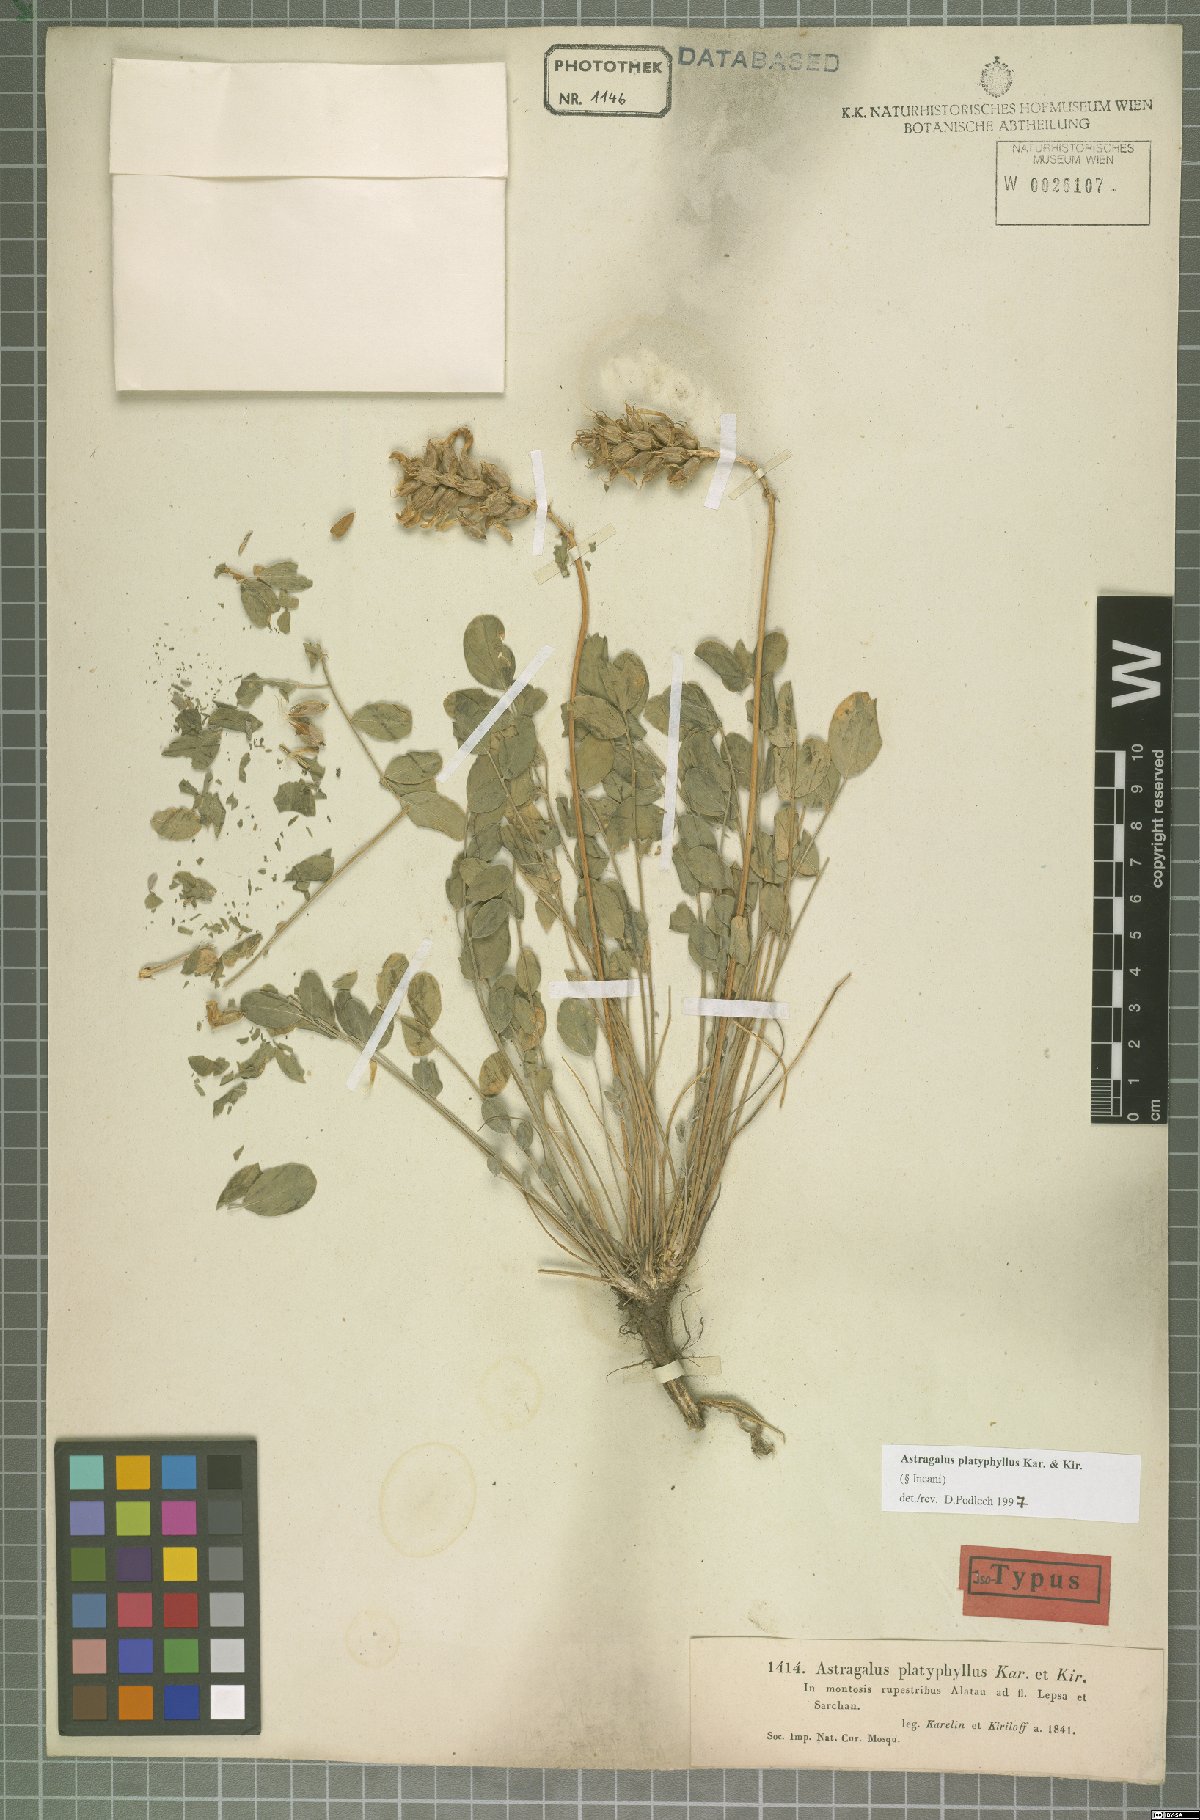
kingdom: Plantae
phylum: Tracheophyta
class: Magnoliopsida
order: Fabales
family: Fabaceae
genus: Astragalus
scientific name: Astragalus platyphyllus
